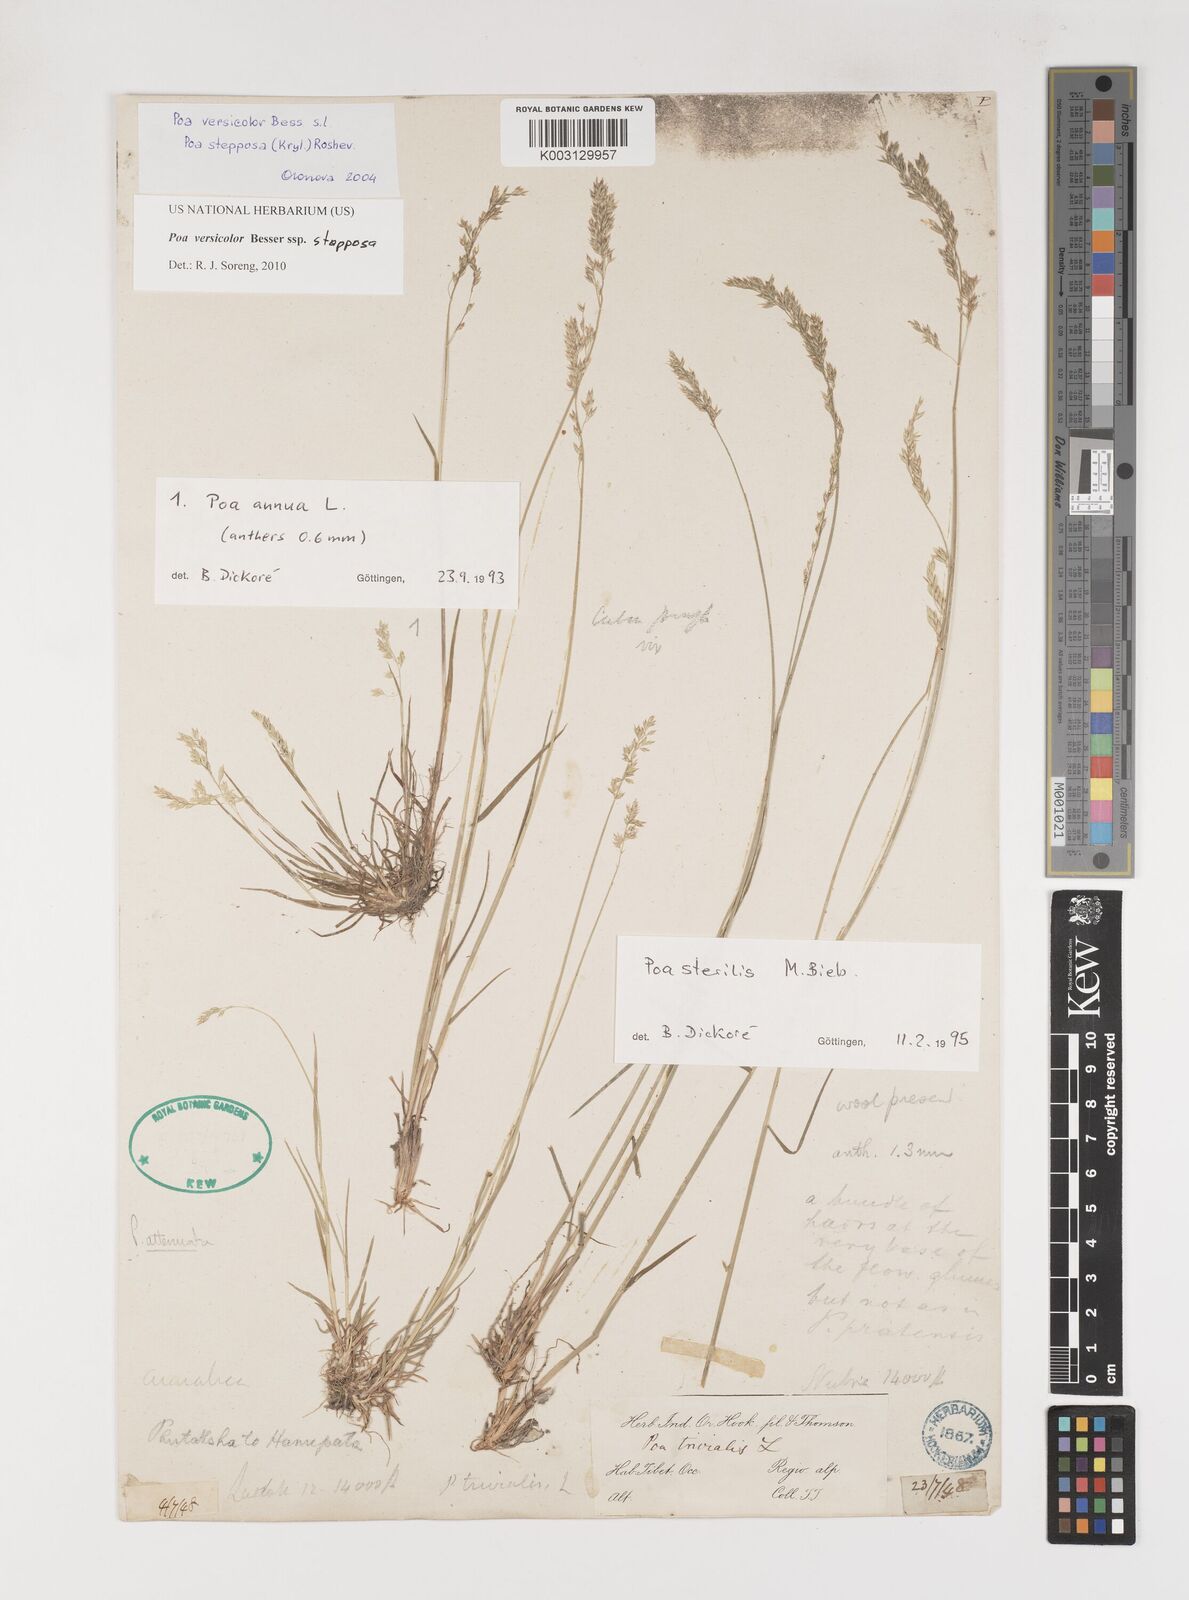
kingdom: Plantae
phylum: Tracheophyta
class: Liliopsida
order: Poales
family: Poaceae
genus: Poa
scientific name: Poa versicolor
